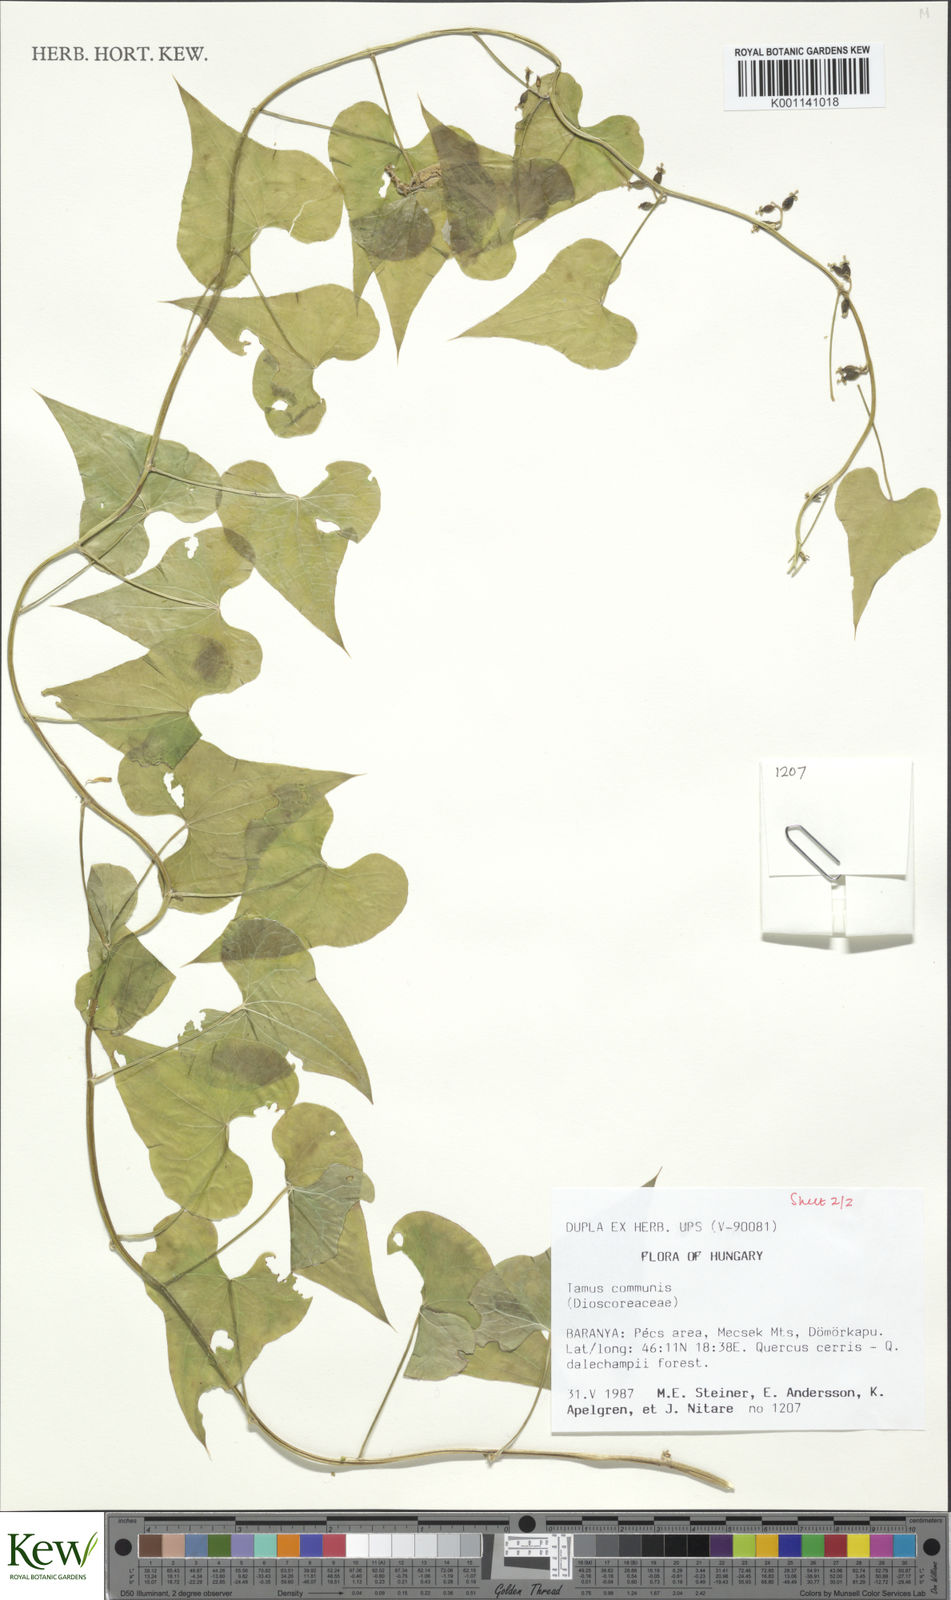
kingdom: Plantae
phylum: Tracheophyta
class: Liliopsida
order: Dioscoreales
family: Dioscoreaceae
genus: Dioscorea
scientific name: Dioscorea communis
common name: Black-bindweed
